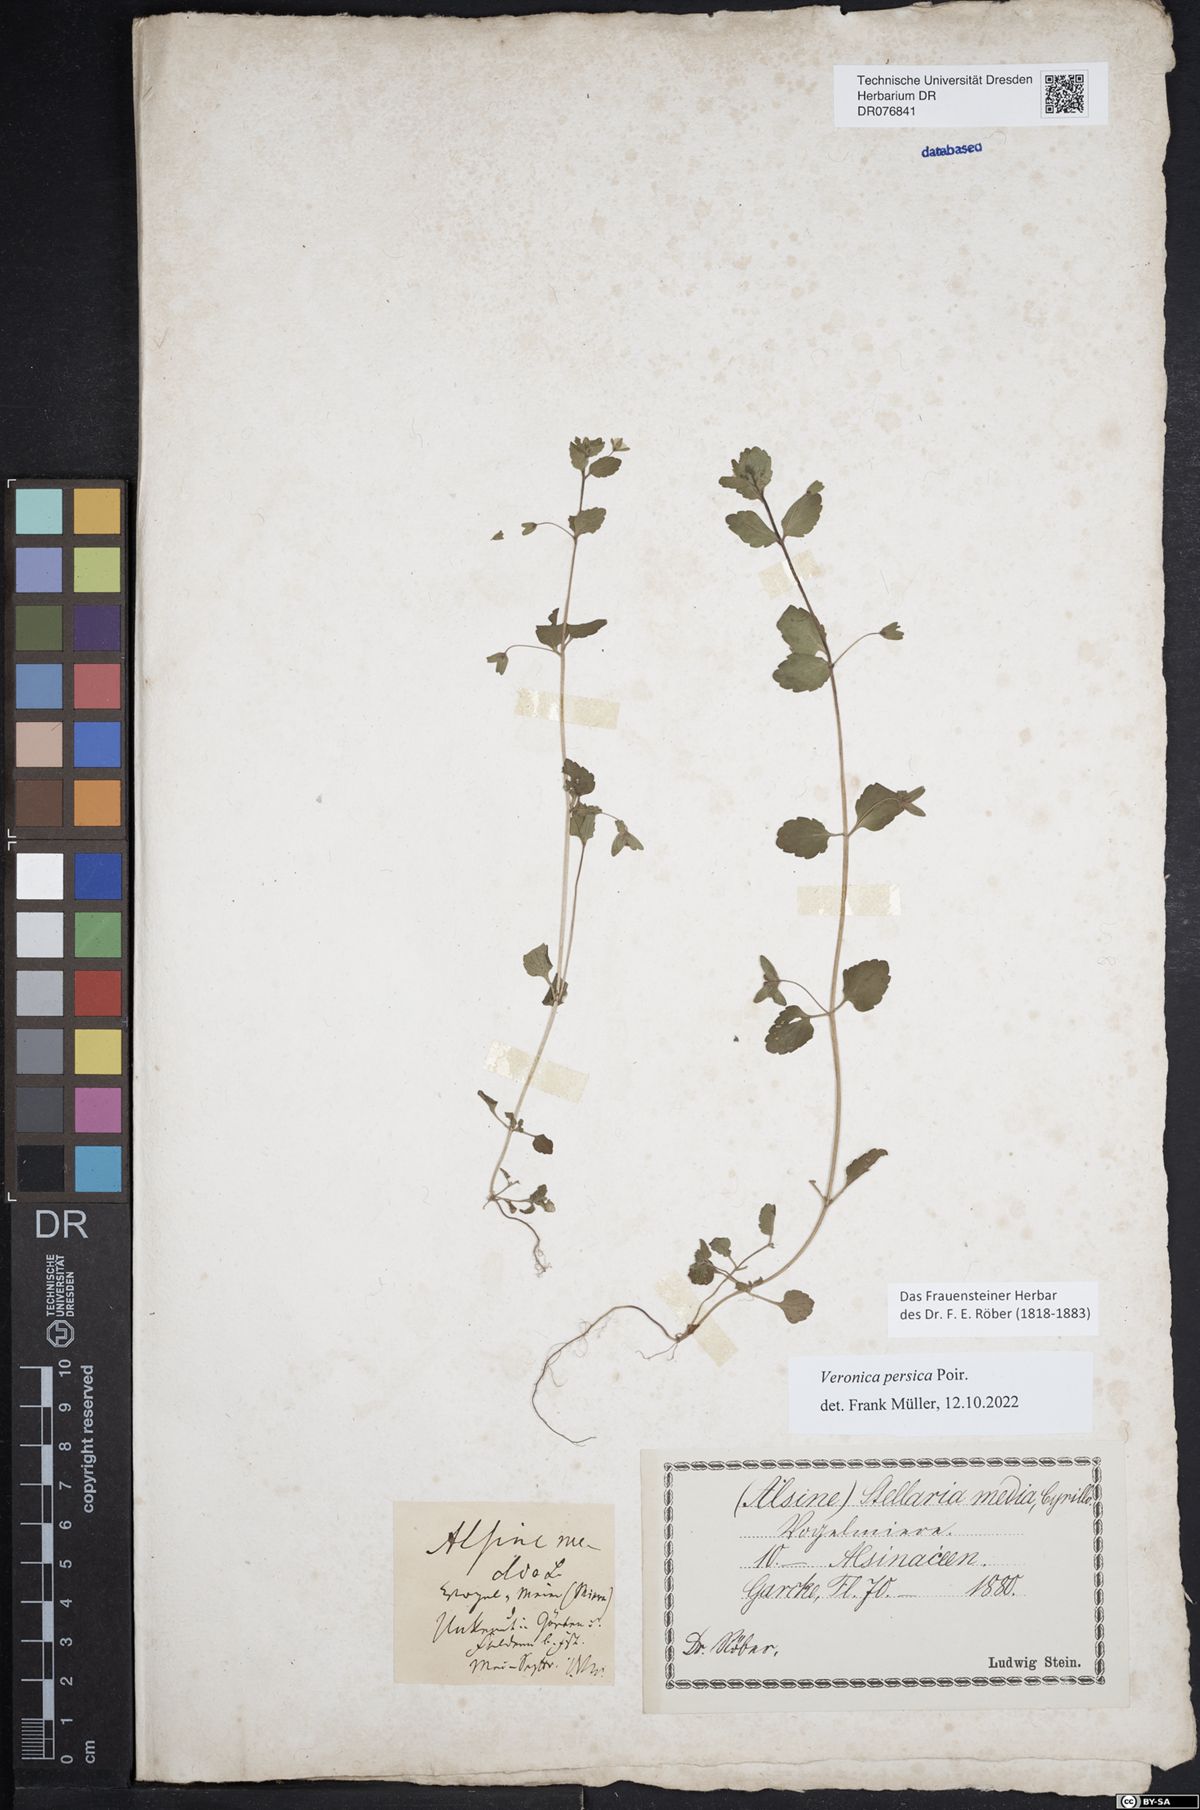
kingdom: Plantae
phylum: Tracheophyta
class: Magnoliopsida
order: Lamiales
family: Plantaginaceae
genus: Veronica
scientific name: Veronica persica
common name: Common field-speedwell
